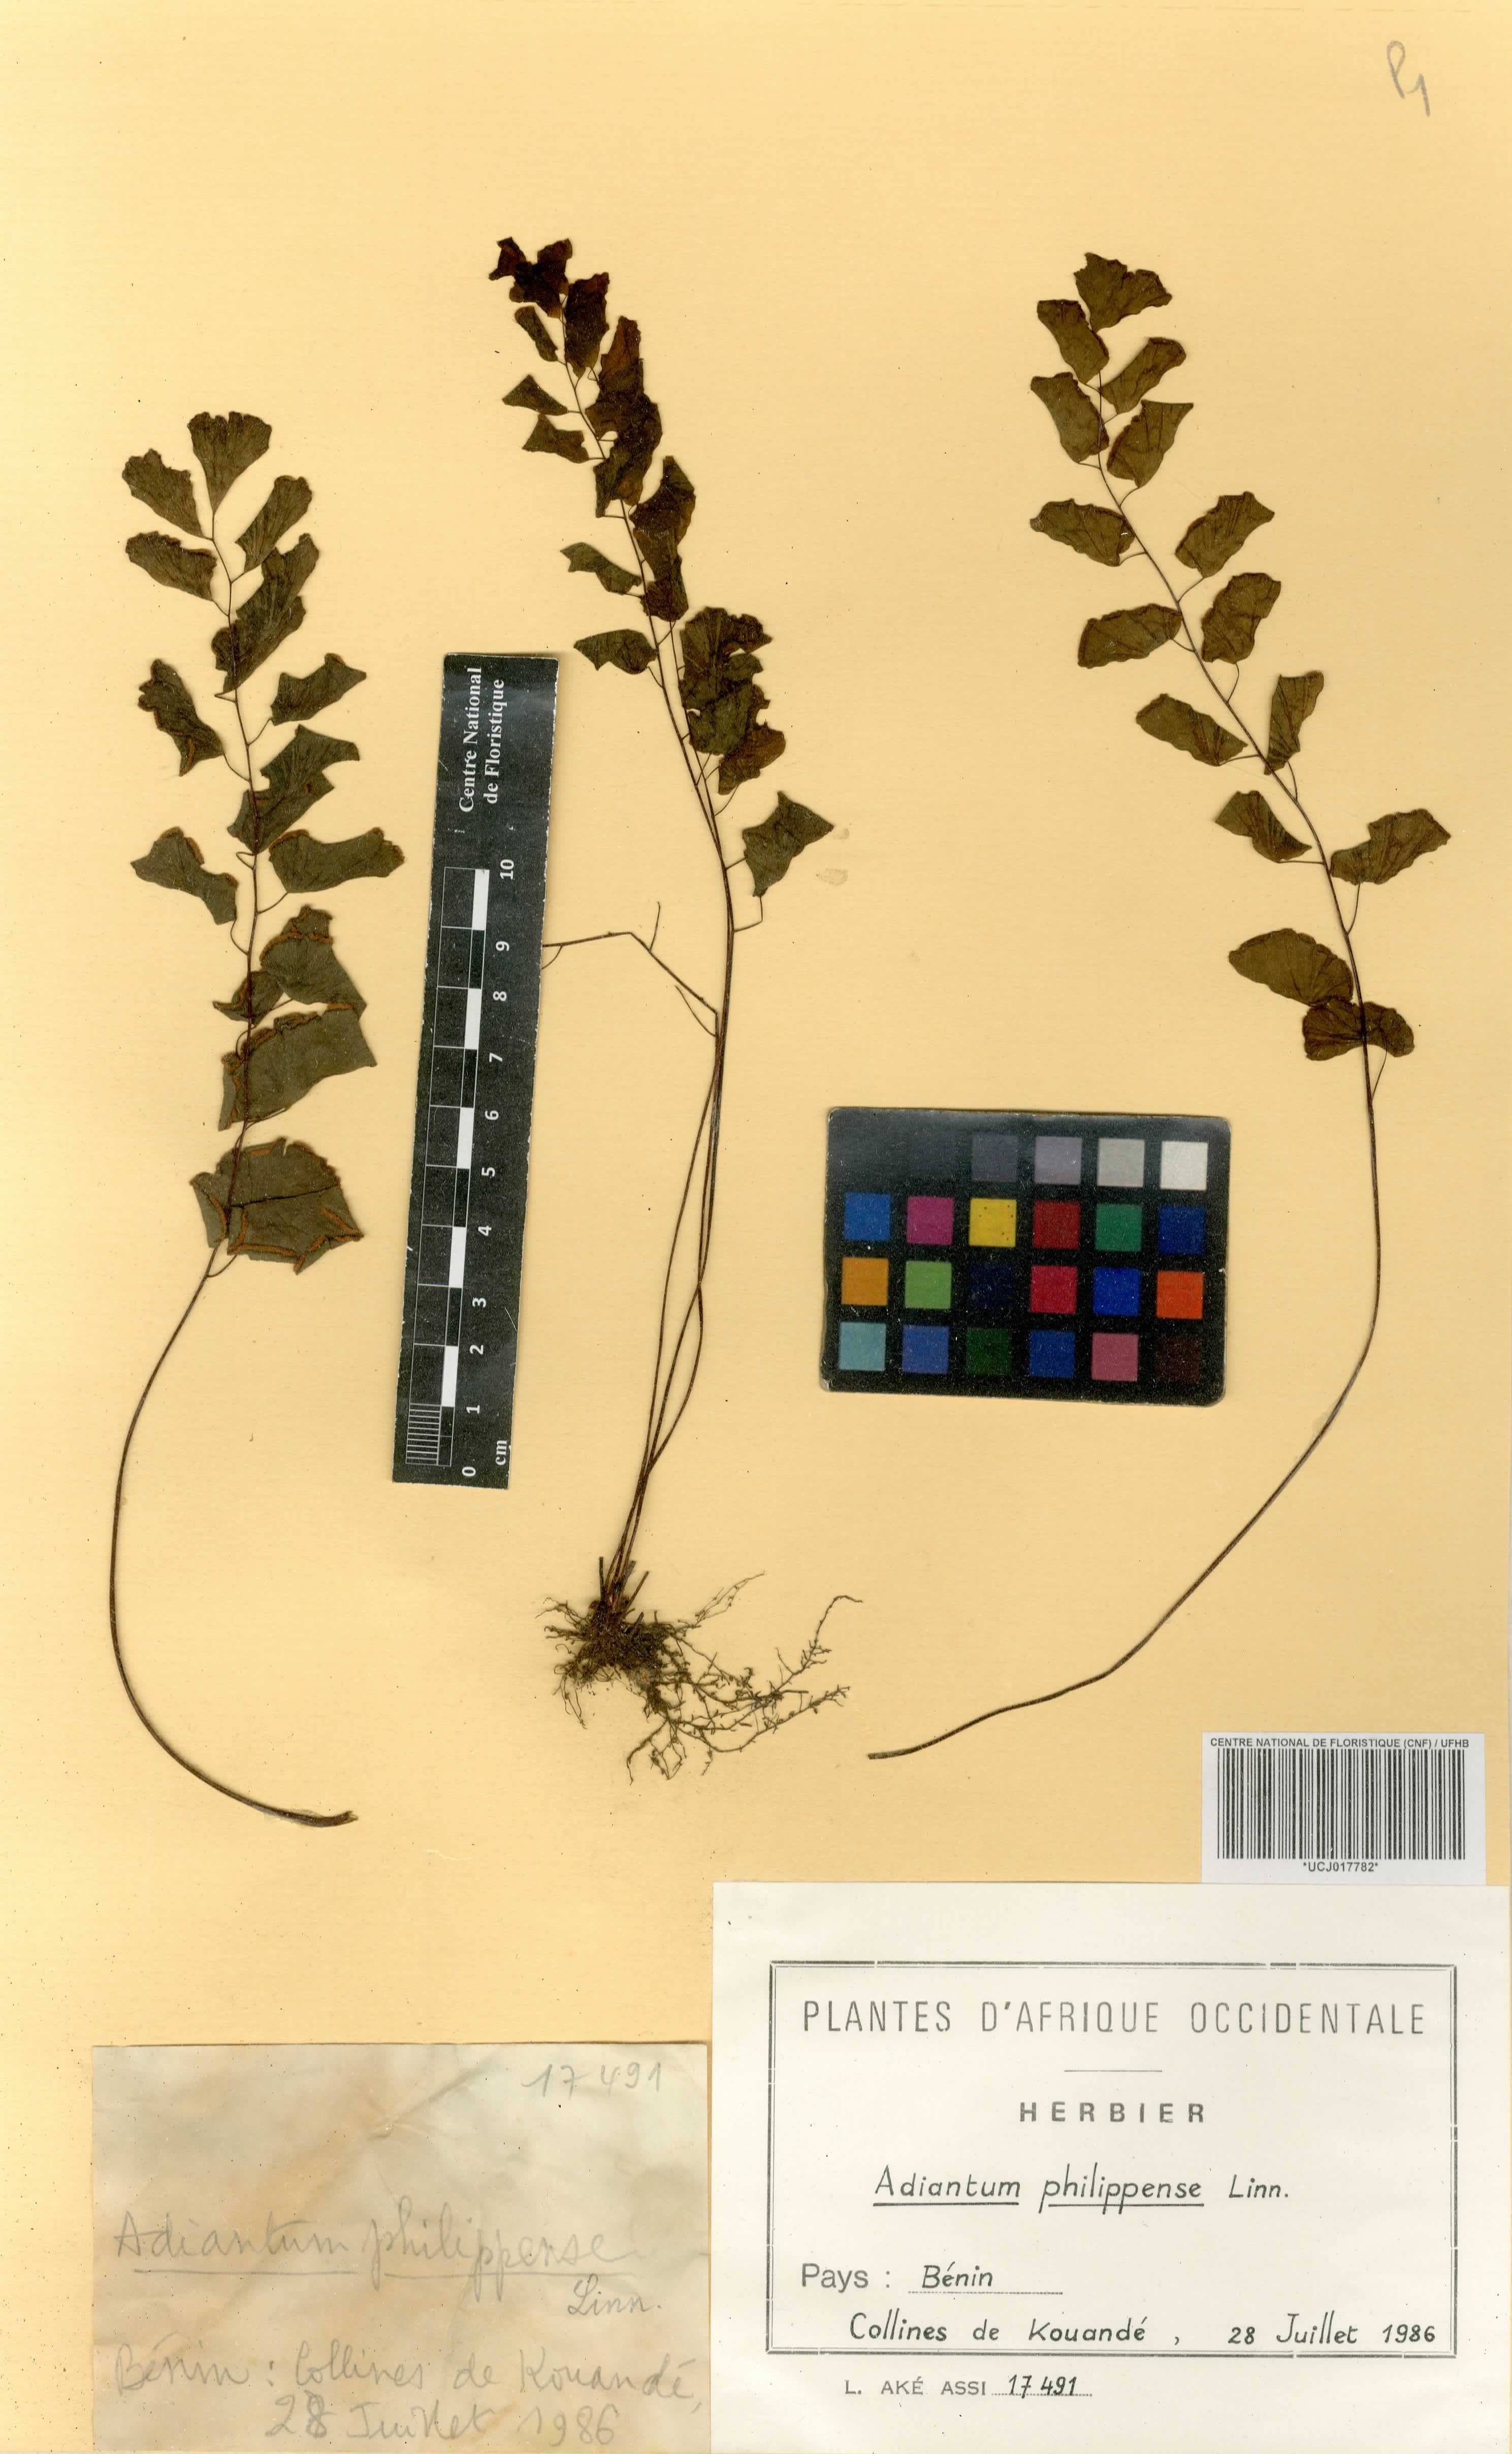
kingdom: Plantae
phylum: Tracheophyta
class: Polypodiopsida
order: Polypodiales
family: Pteridaceae
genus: Adiantum
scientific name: Adiantum philippense
